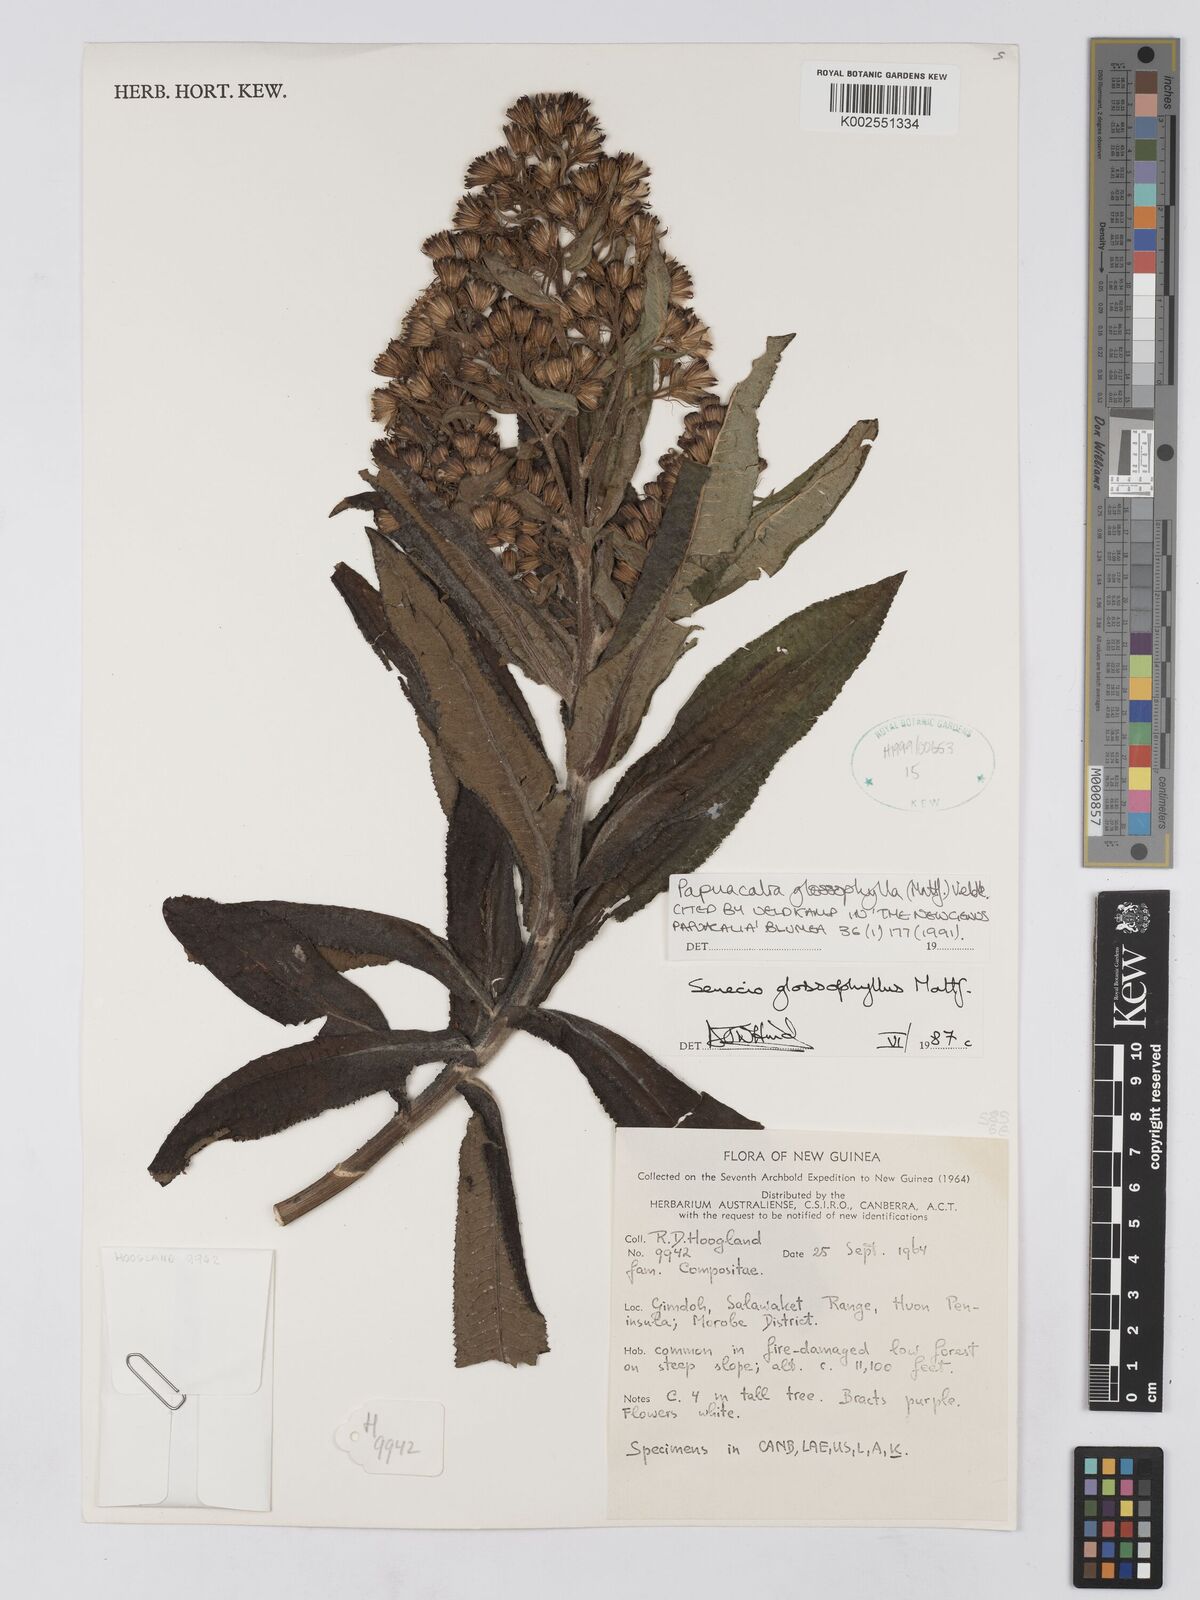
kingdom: Plantae
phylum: Tracheophyta
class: Magnoliopsida
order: Asterales
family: Asteraceae
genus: Papuacalia
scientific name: Papuacalia glossophylla
